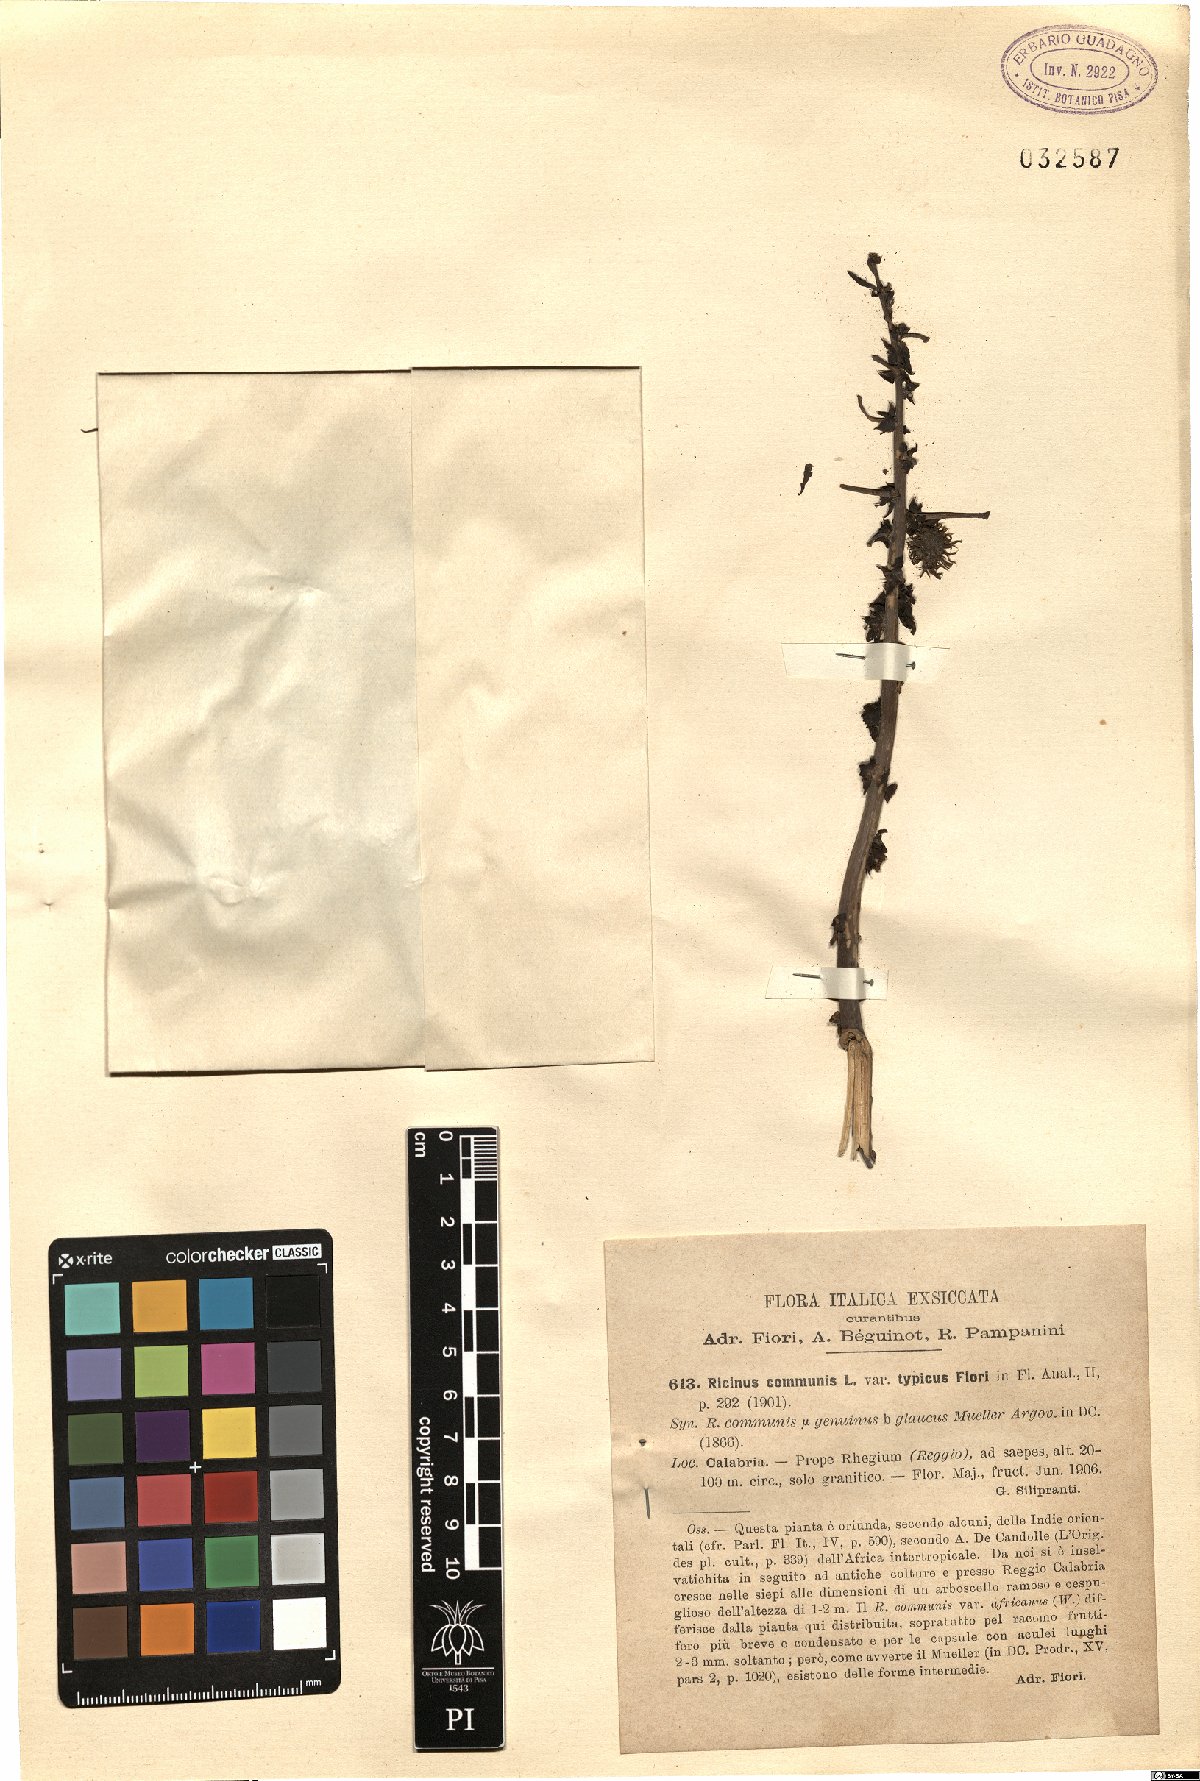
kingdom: Plantae
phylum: Tracheophyta
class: Magnoliopsida
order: Malpighiales
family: Euphorbiaceae
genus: Ricinus
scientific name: Ricinus communis
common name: Castor-oil-plant
